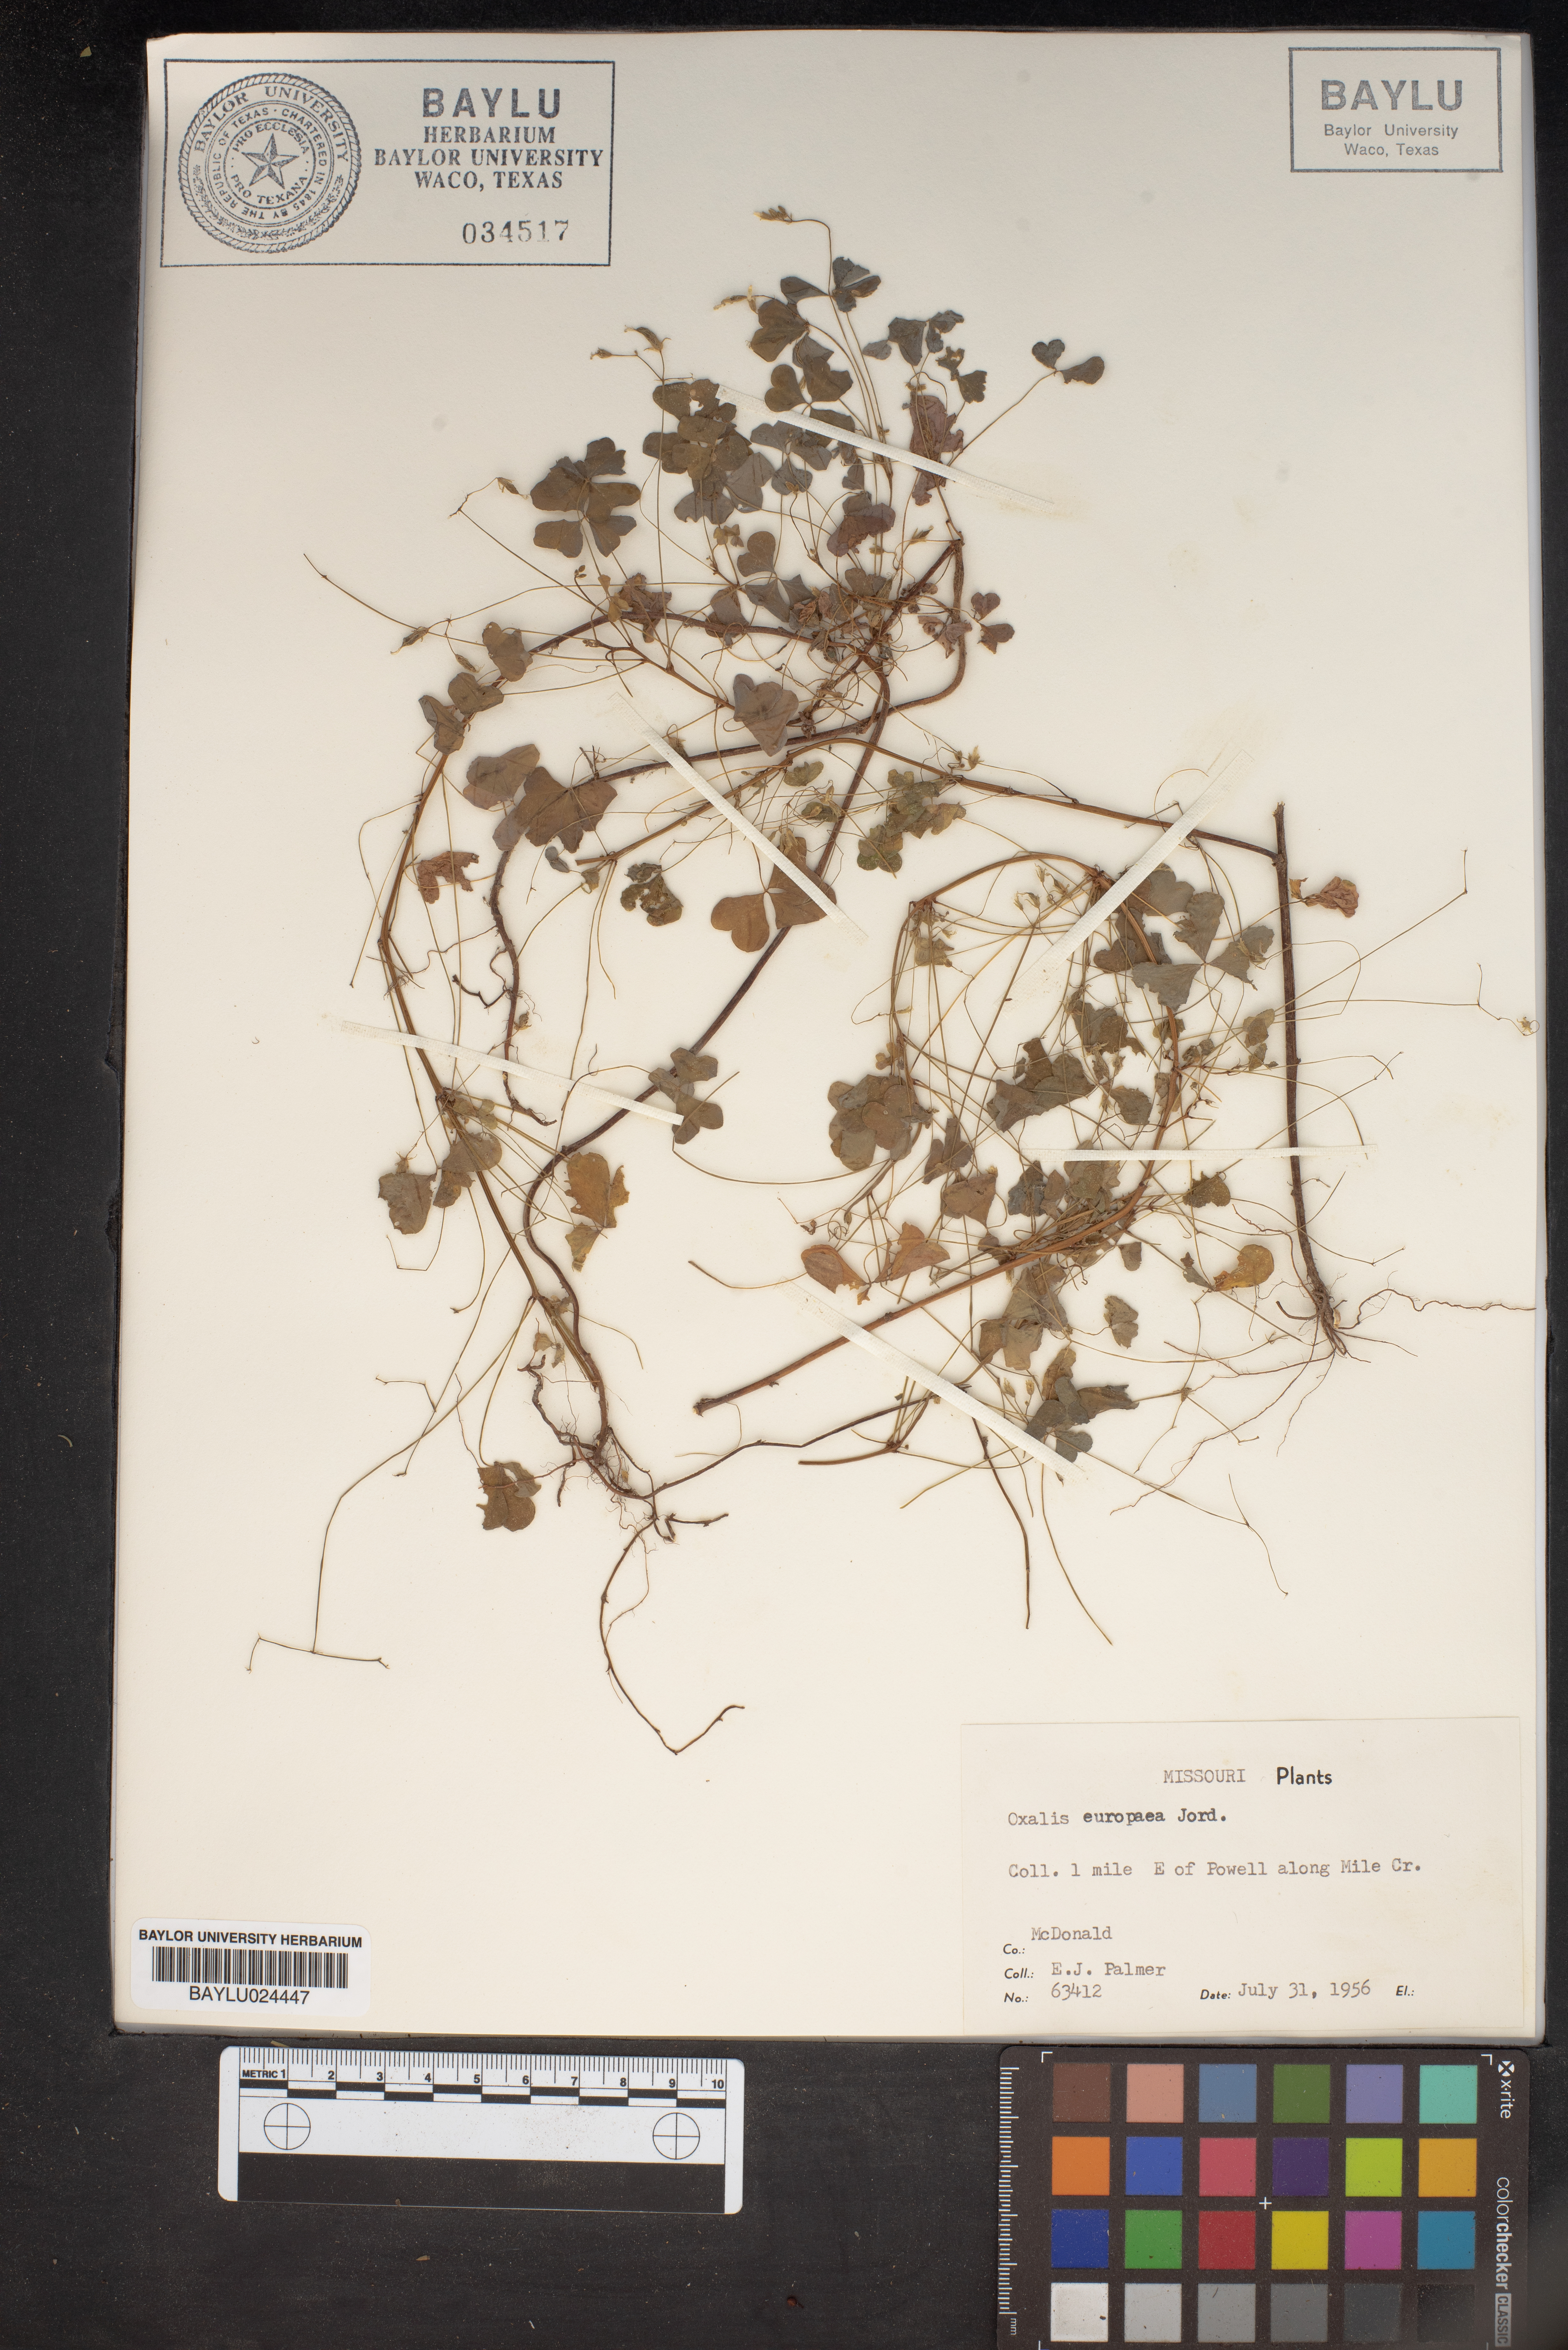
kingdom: Plantae
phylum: Tracheophyta
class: Magnoliopsida
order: Oxalidales
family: Oxalidaceae
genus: Oxalis
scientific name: Oxalis stricta
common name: Upright yellow-sorrel
